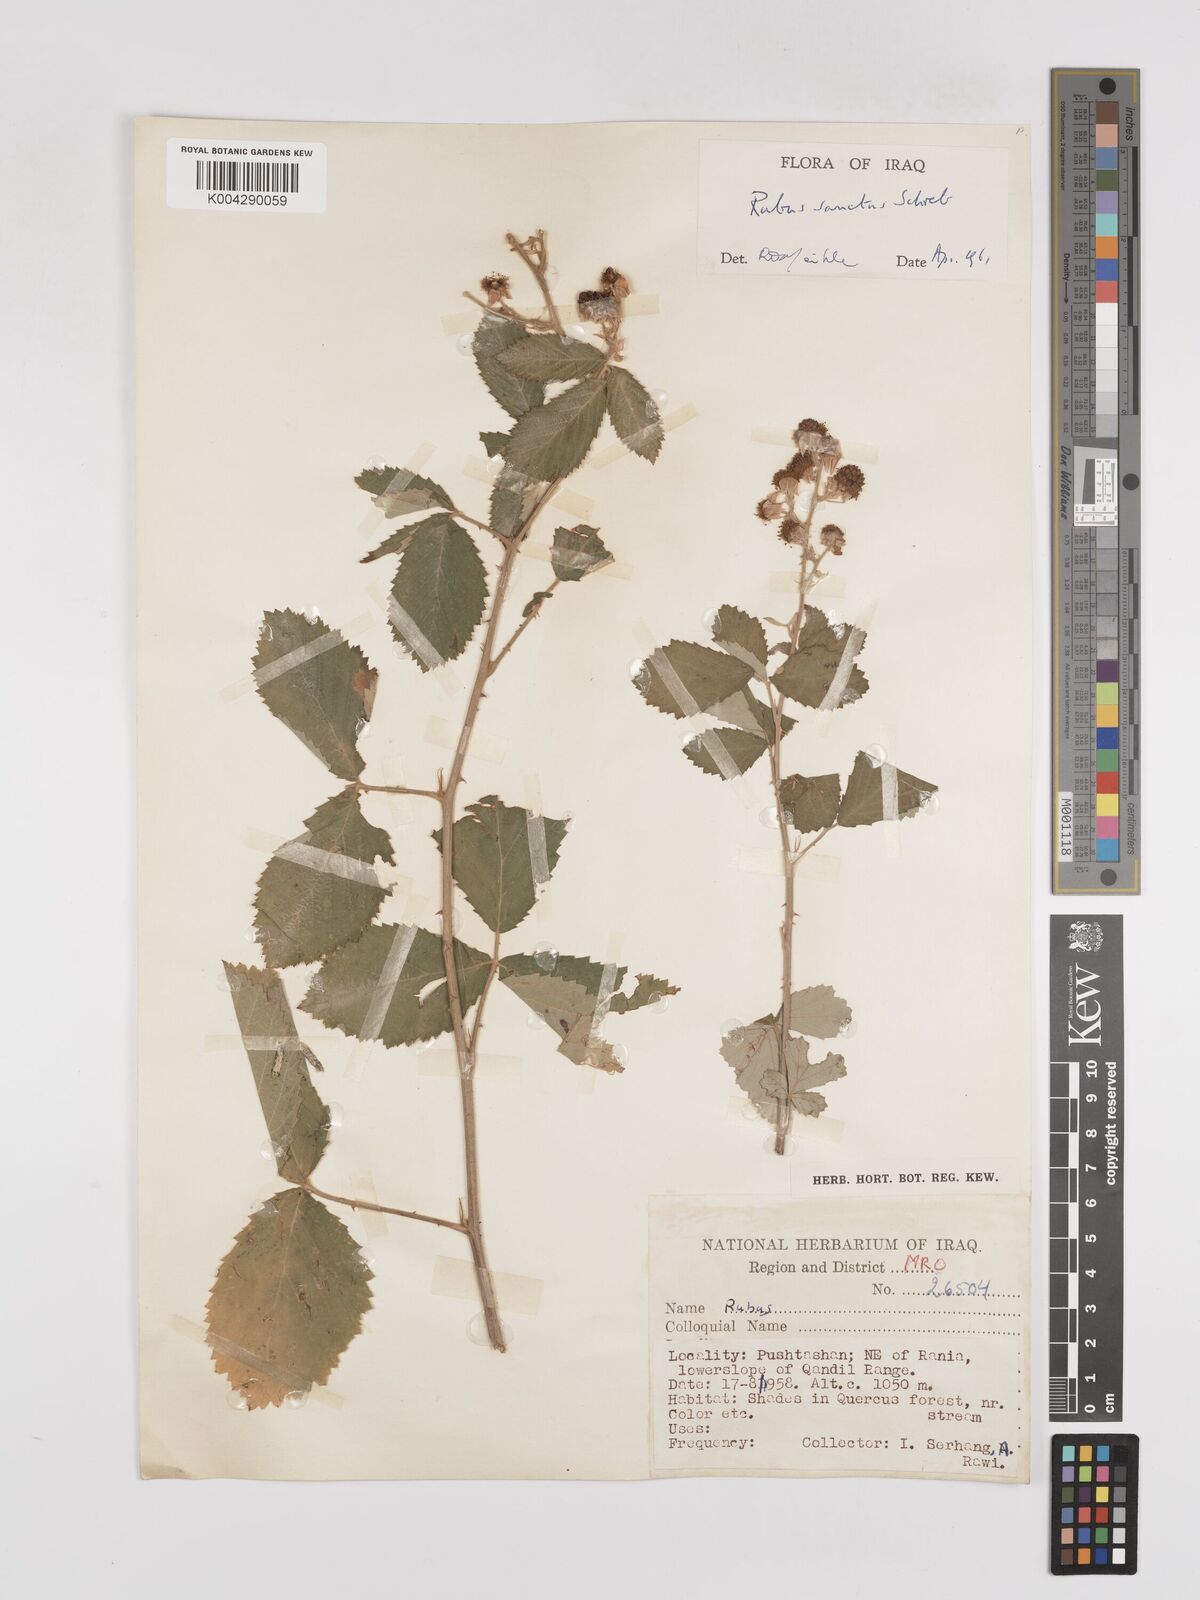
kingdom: Plantae
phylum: Tracheophyta
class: Magnoliopsida
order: Rosales
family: Rosaceae
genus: Rubus
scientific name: Rubus sanctus
